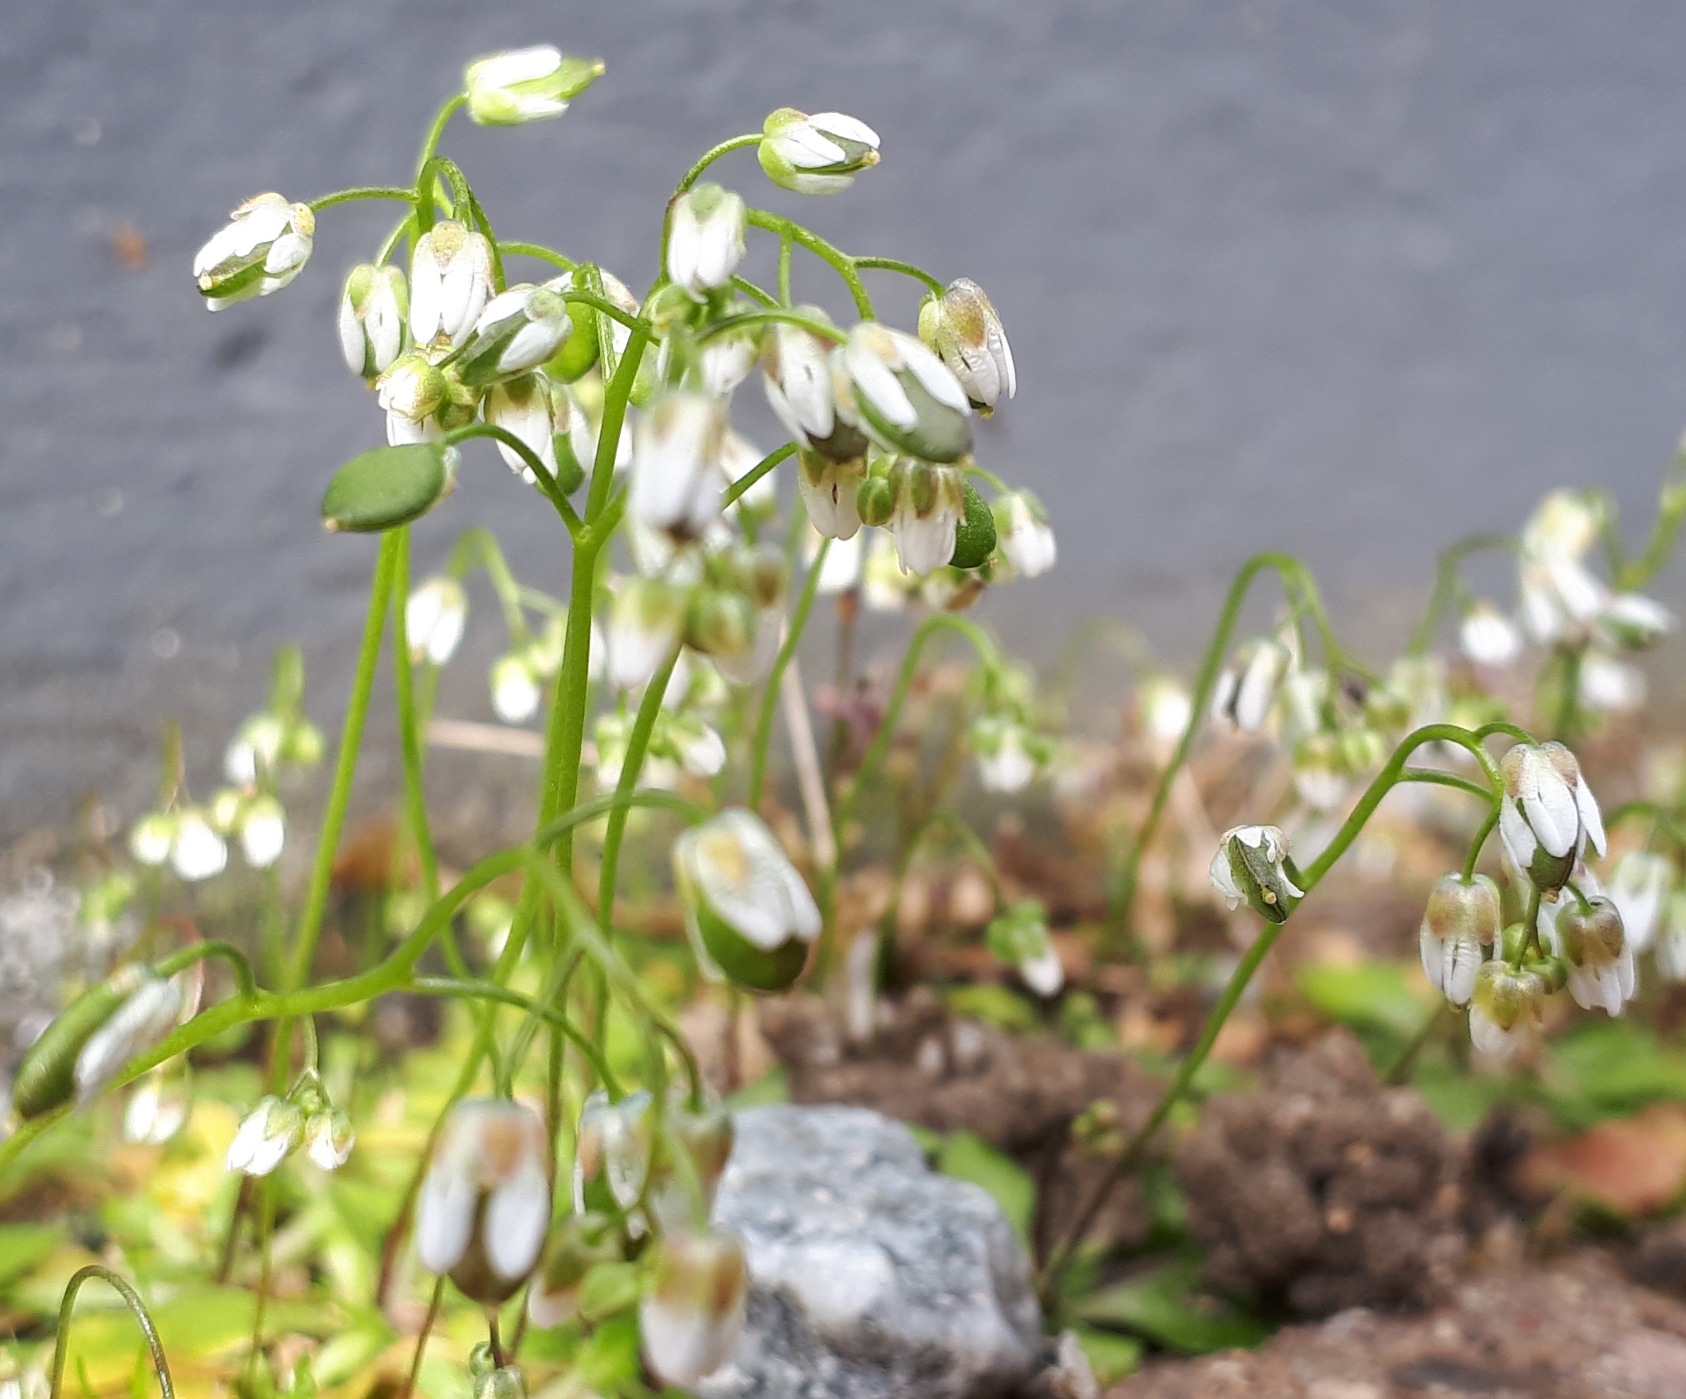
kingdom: Plantae
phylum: Tracheophyta
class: Magnoliopsida
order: Brassicales
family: Brassicaceae
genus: Draba
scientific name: Draba verna
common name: Vår-gæslingeblomst
